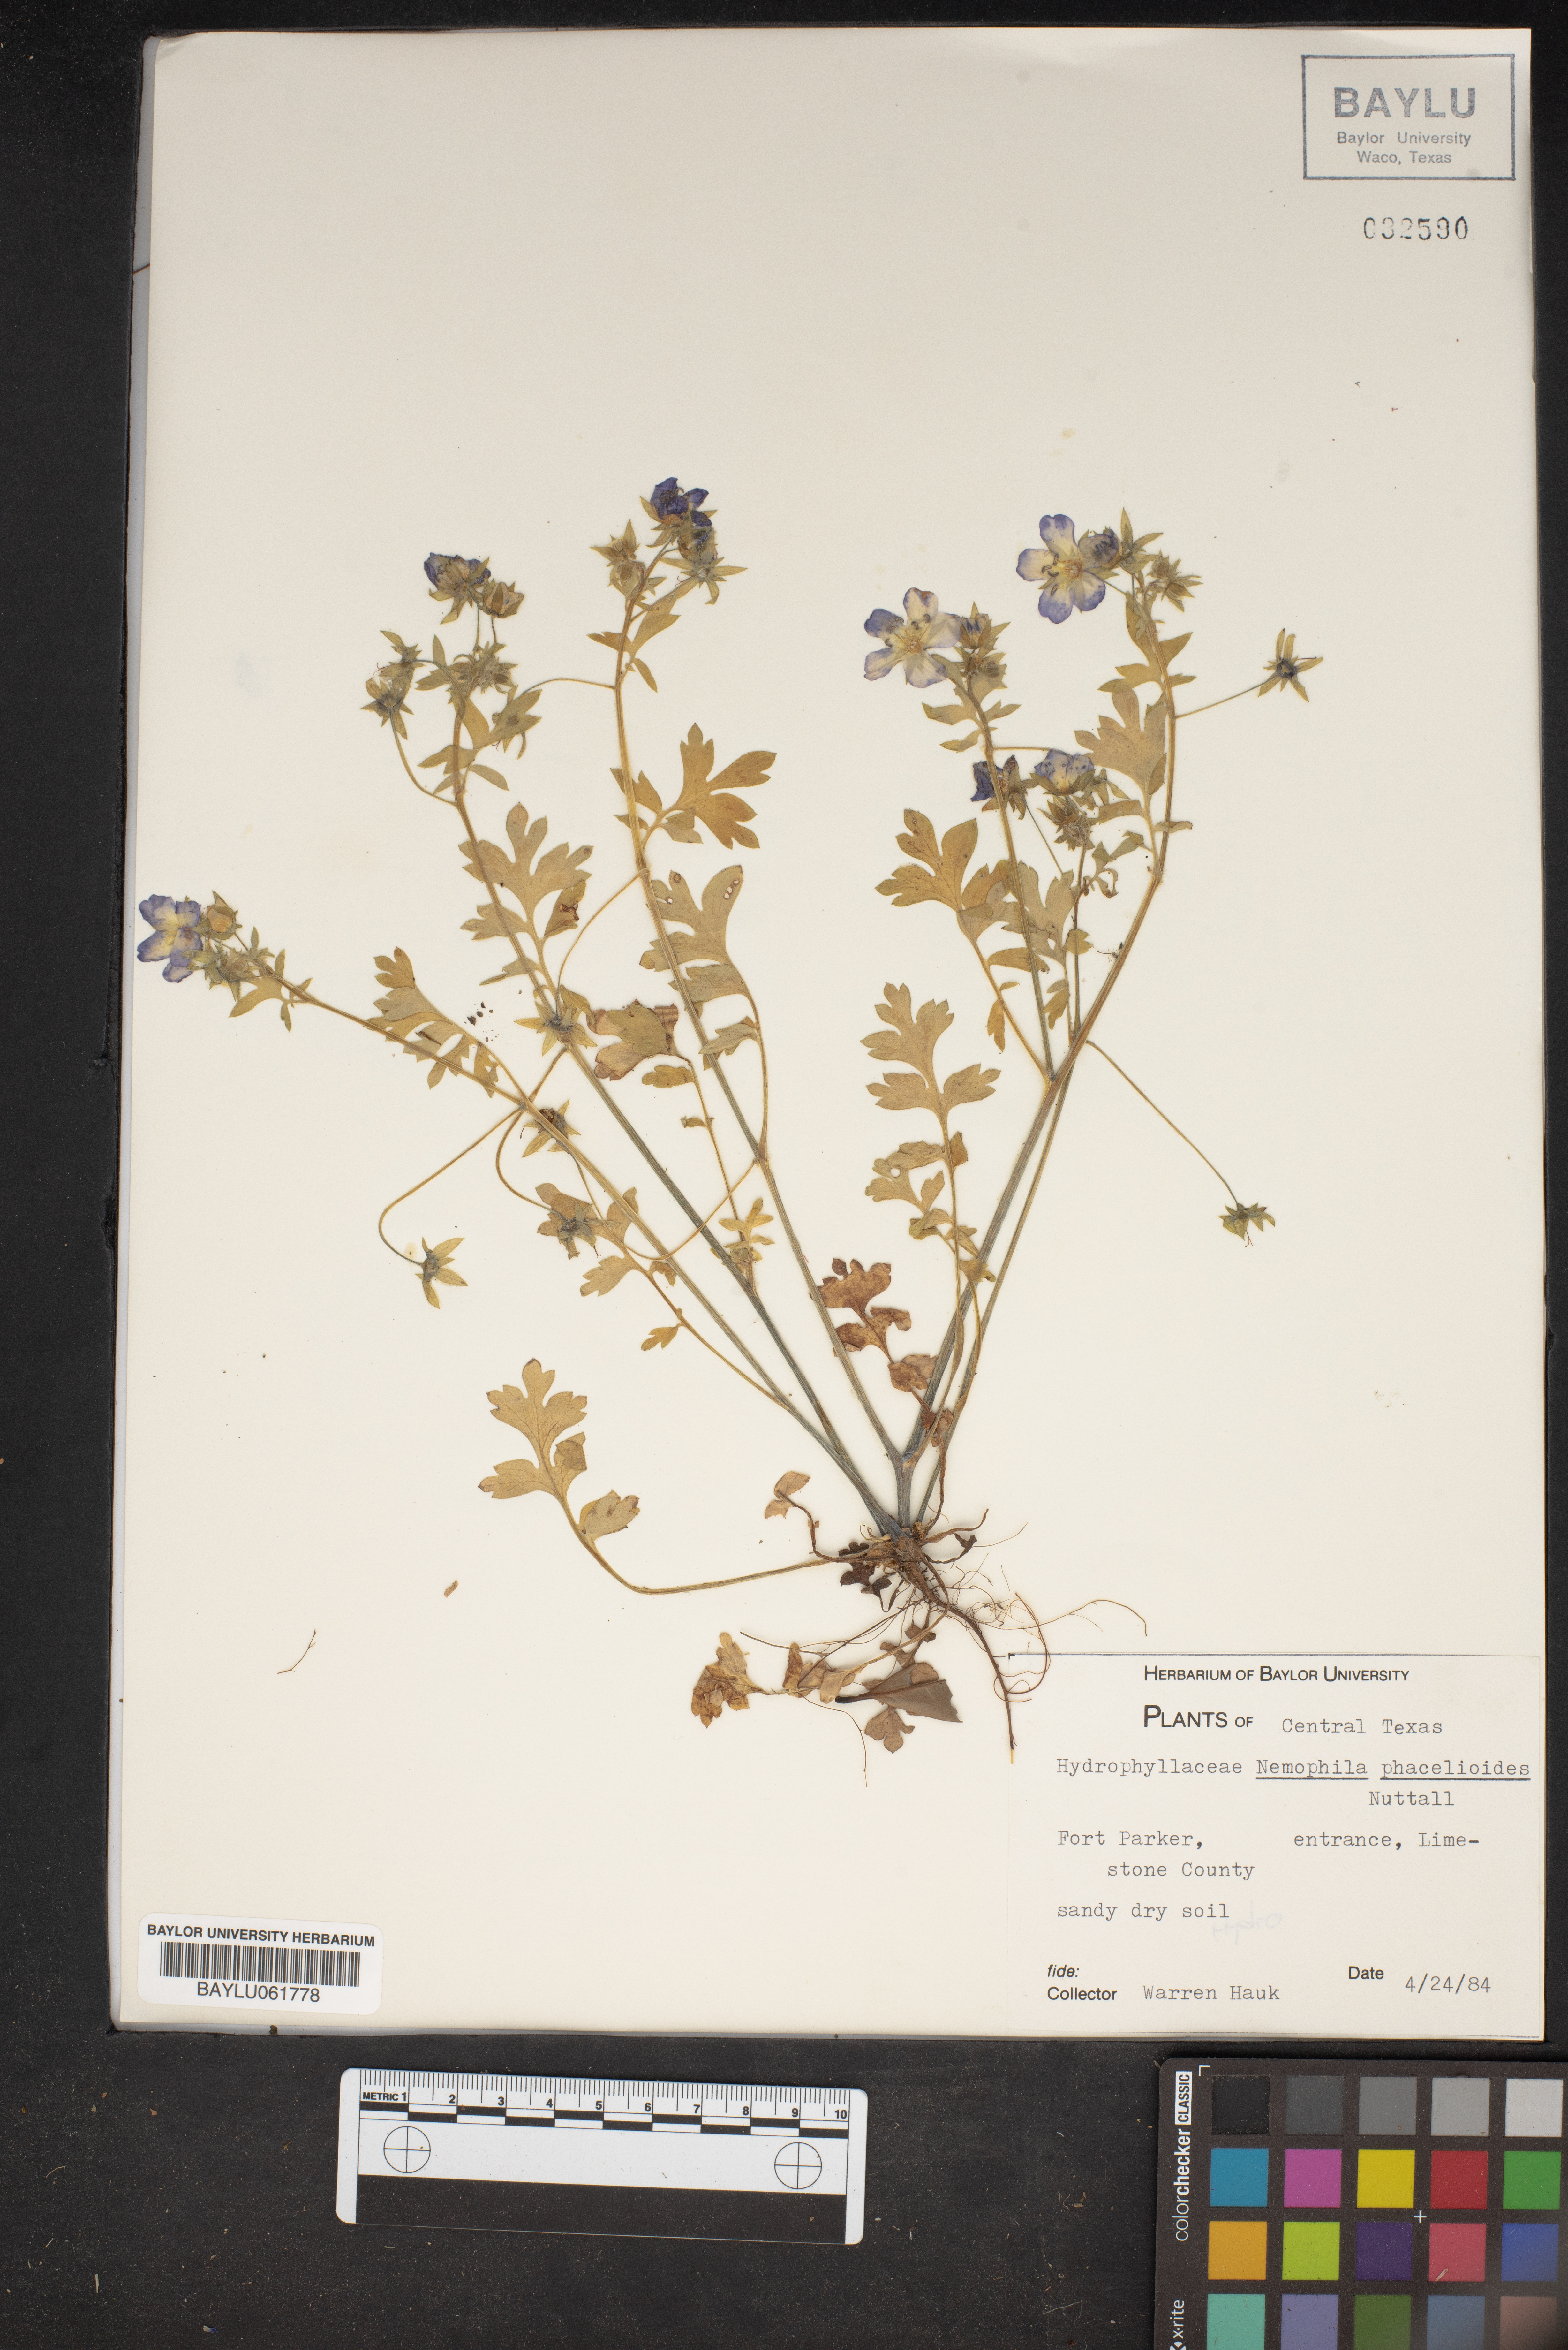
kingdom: Plantae
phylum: Tracheophyta
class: Magnoliopsida
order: Boraginales
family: Hydrophyllaceae
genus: Nemophila
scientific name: Nemophila phacelioides
